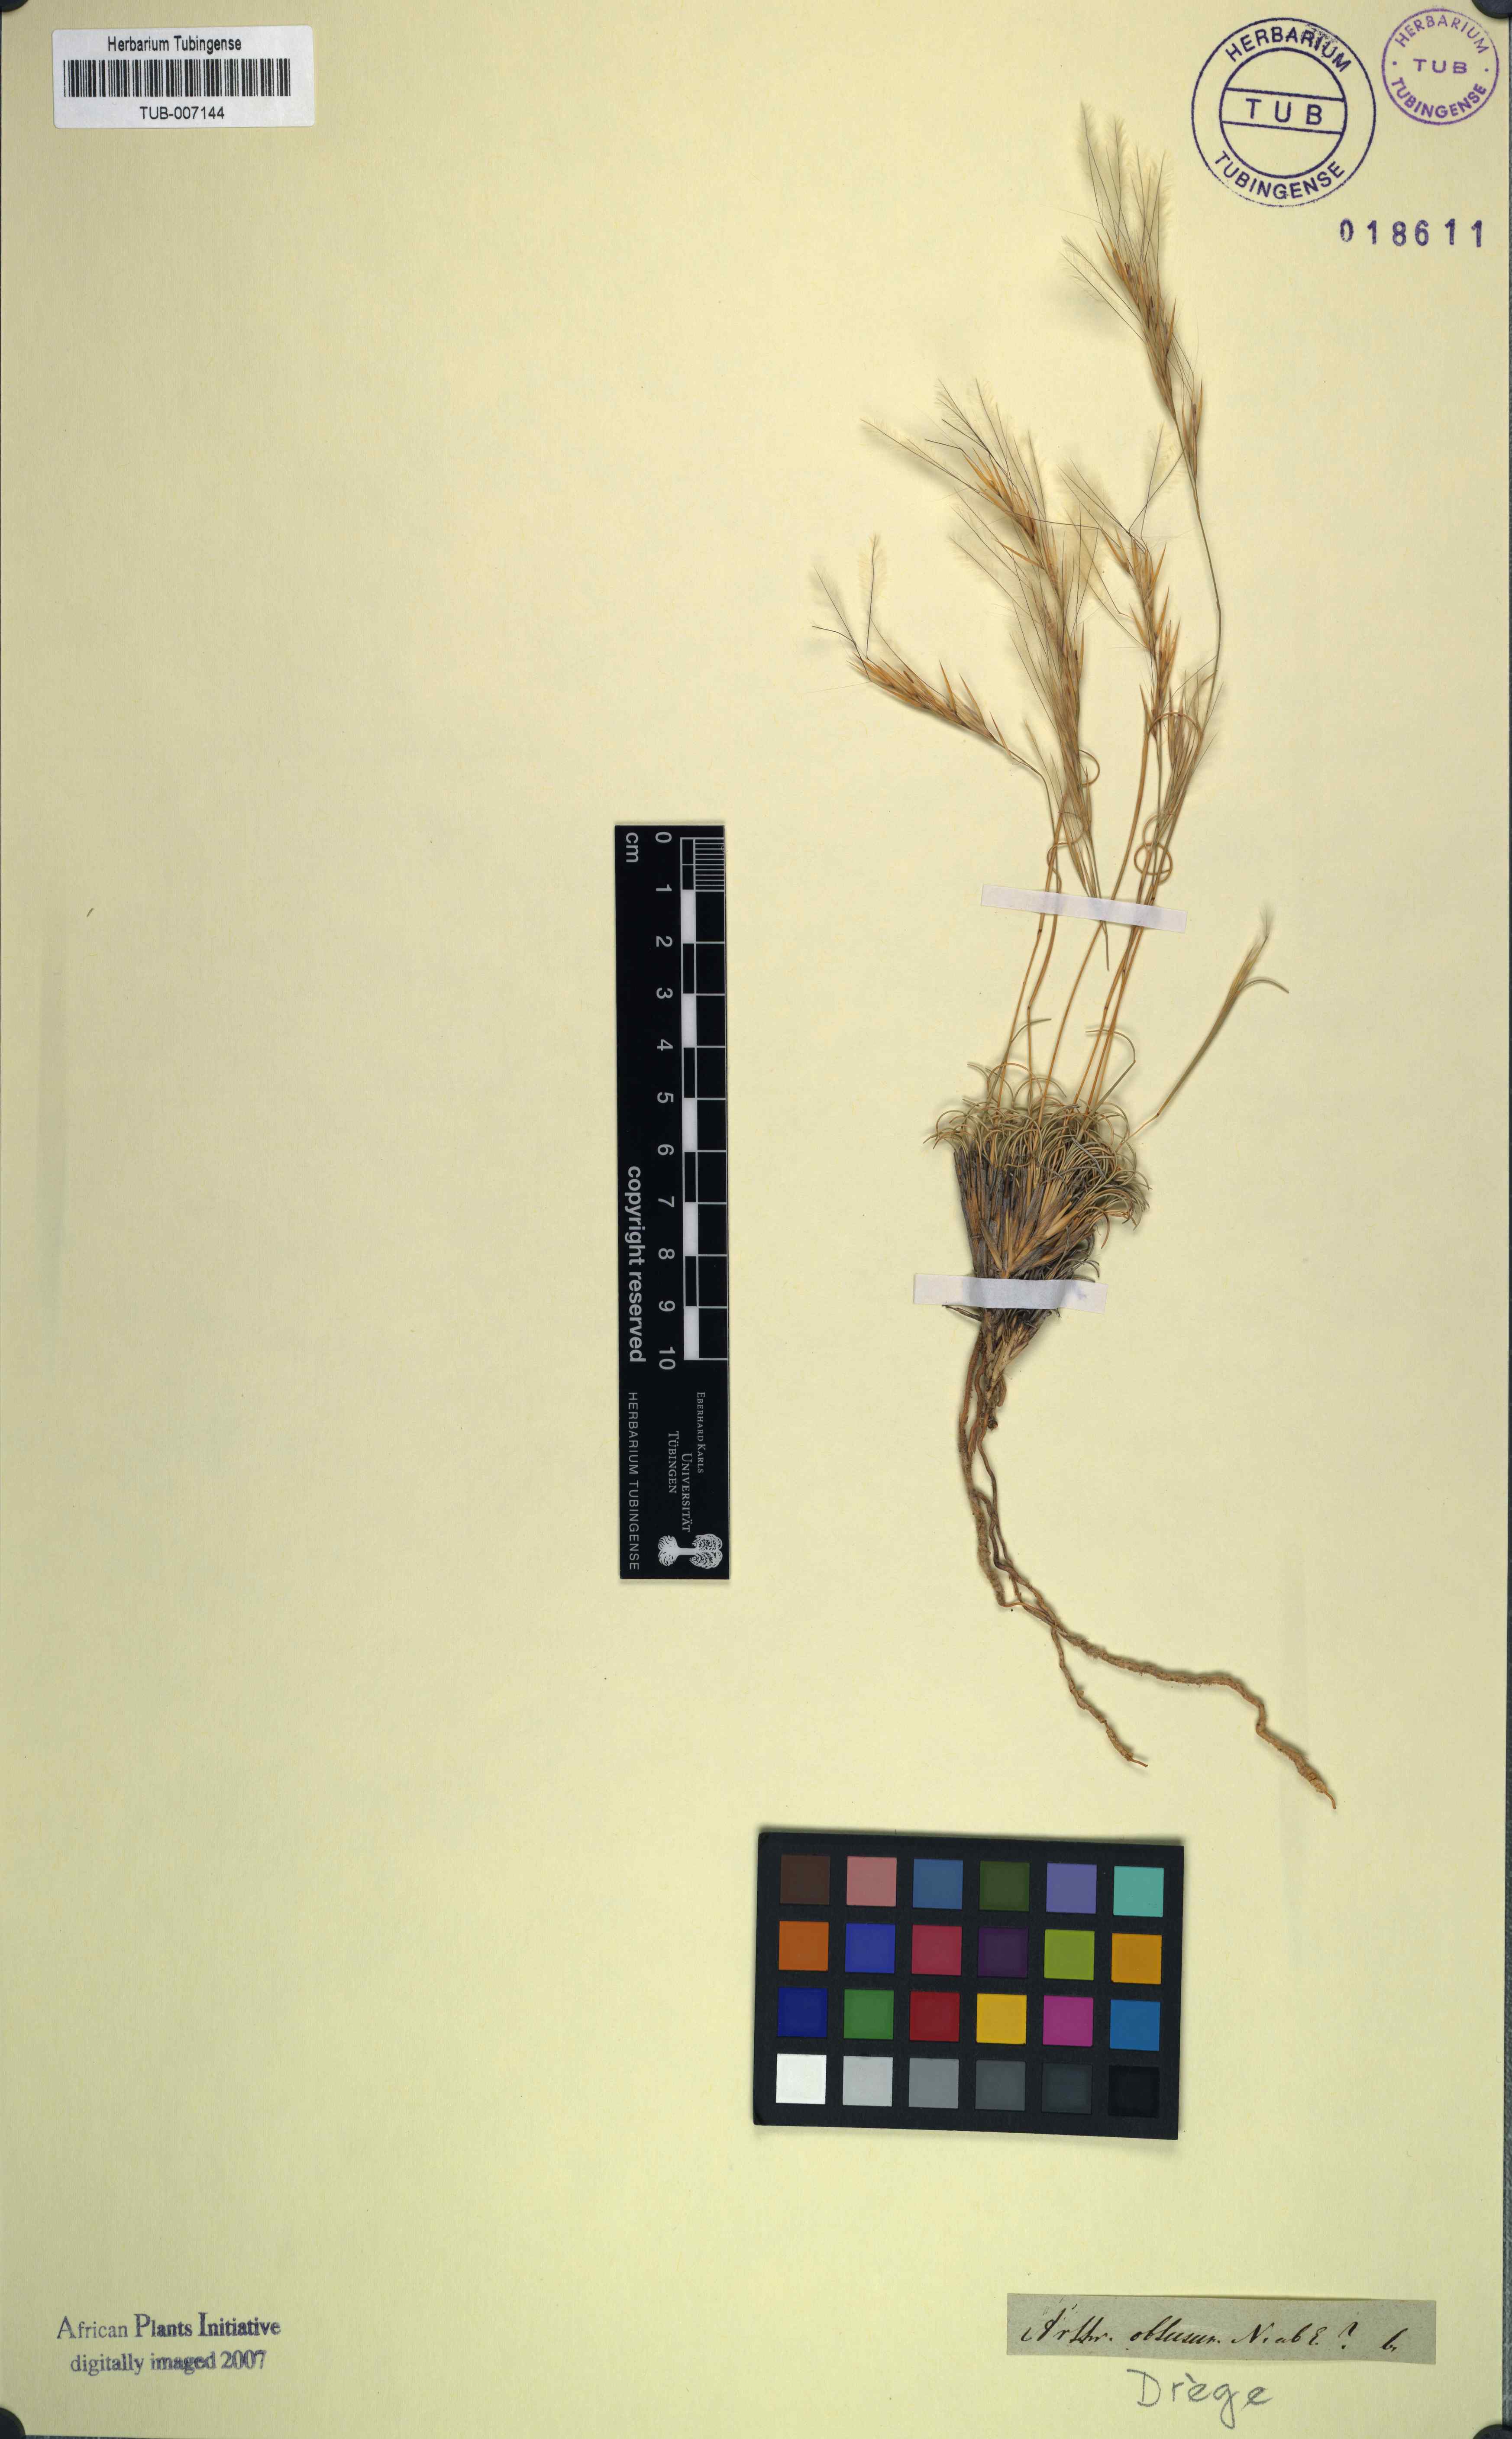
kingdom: Plantae
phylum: Tracheophyta
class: Liliopsida
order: Poales
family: Poaceae
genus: Stipagrostis
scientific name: Stipagrostis obtusa
